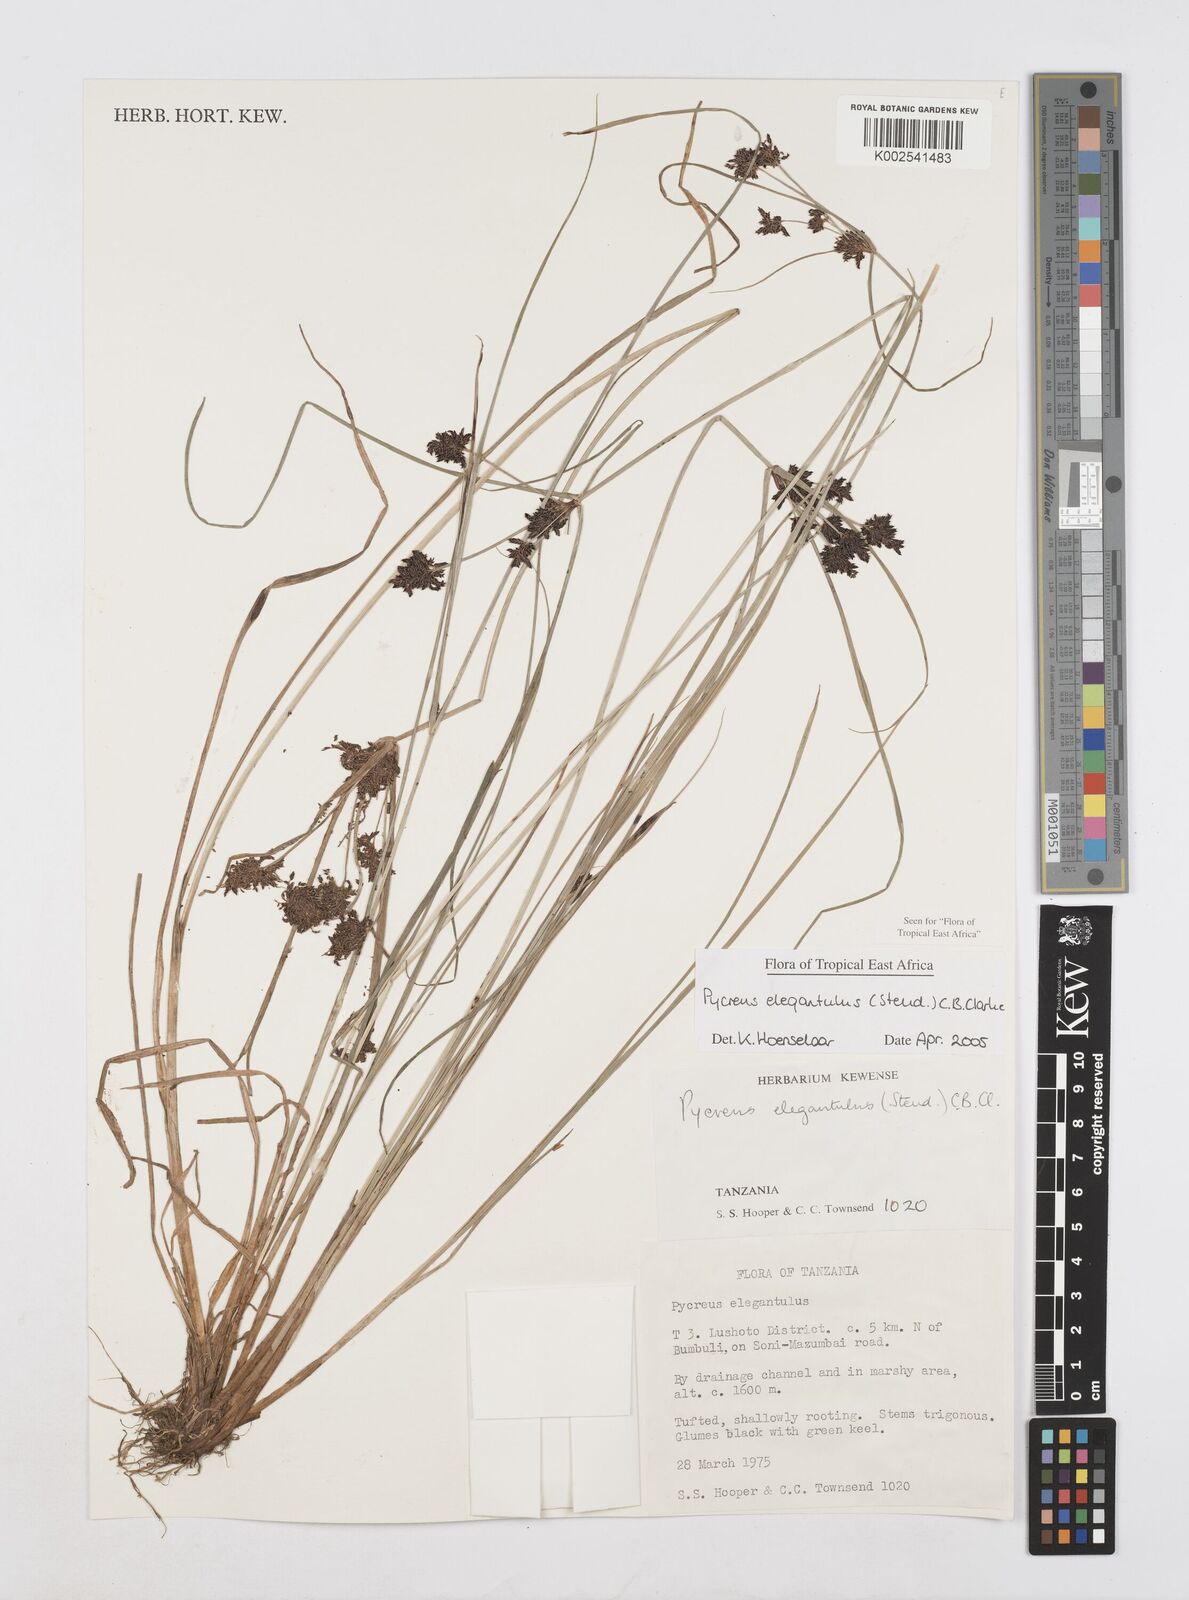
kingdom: Plantae
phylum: Tracheophyta
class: Liliopsida
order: Poales
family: Cyperaceae
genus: Cyperus
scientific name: Cyperus elegantulus
